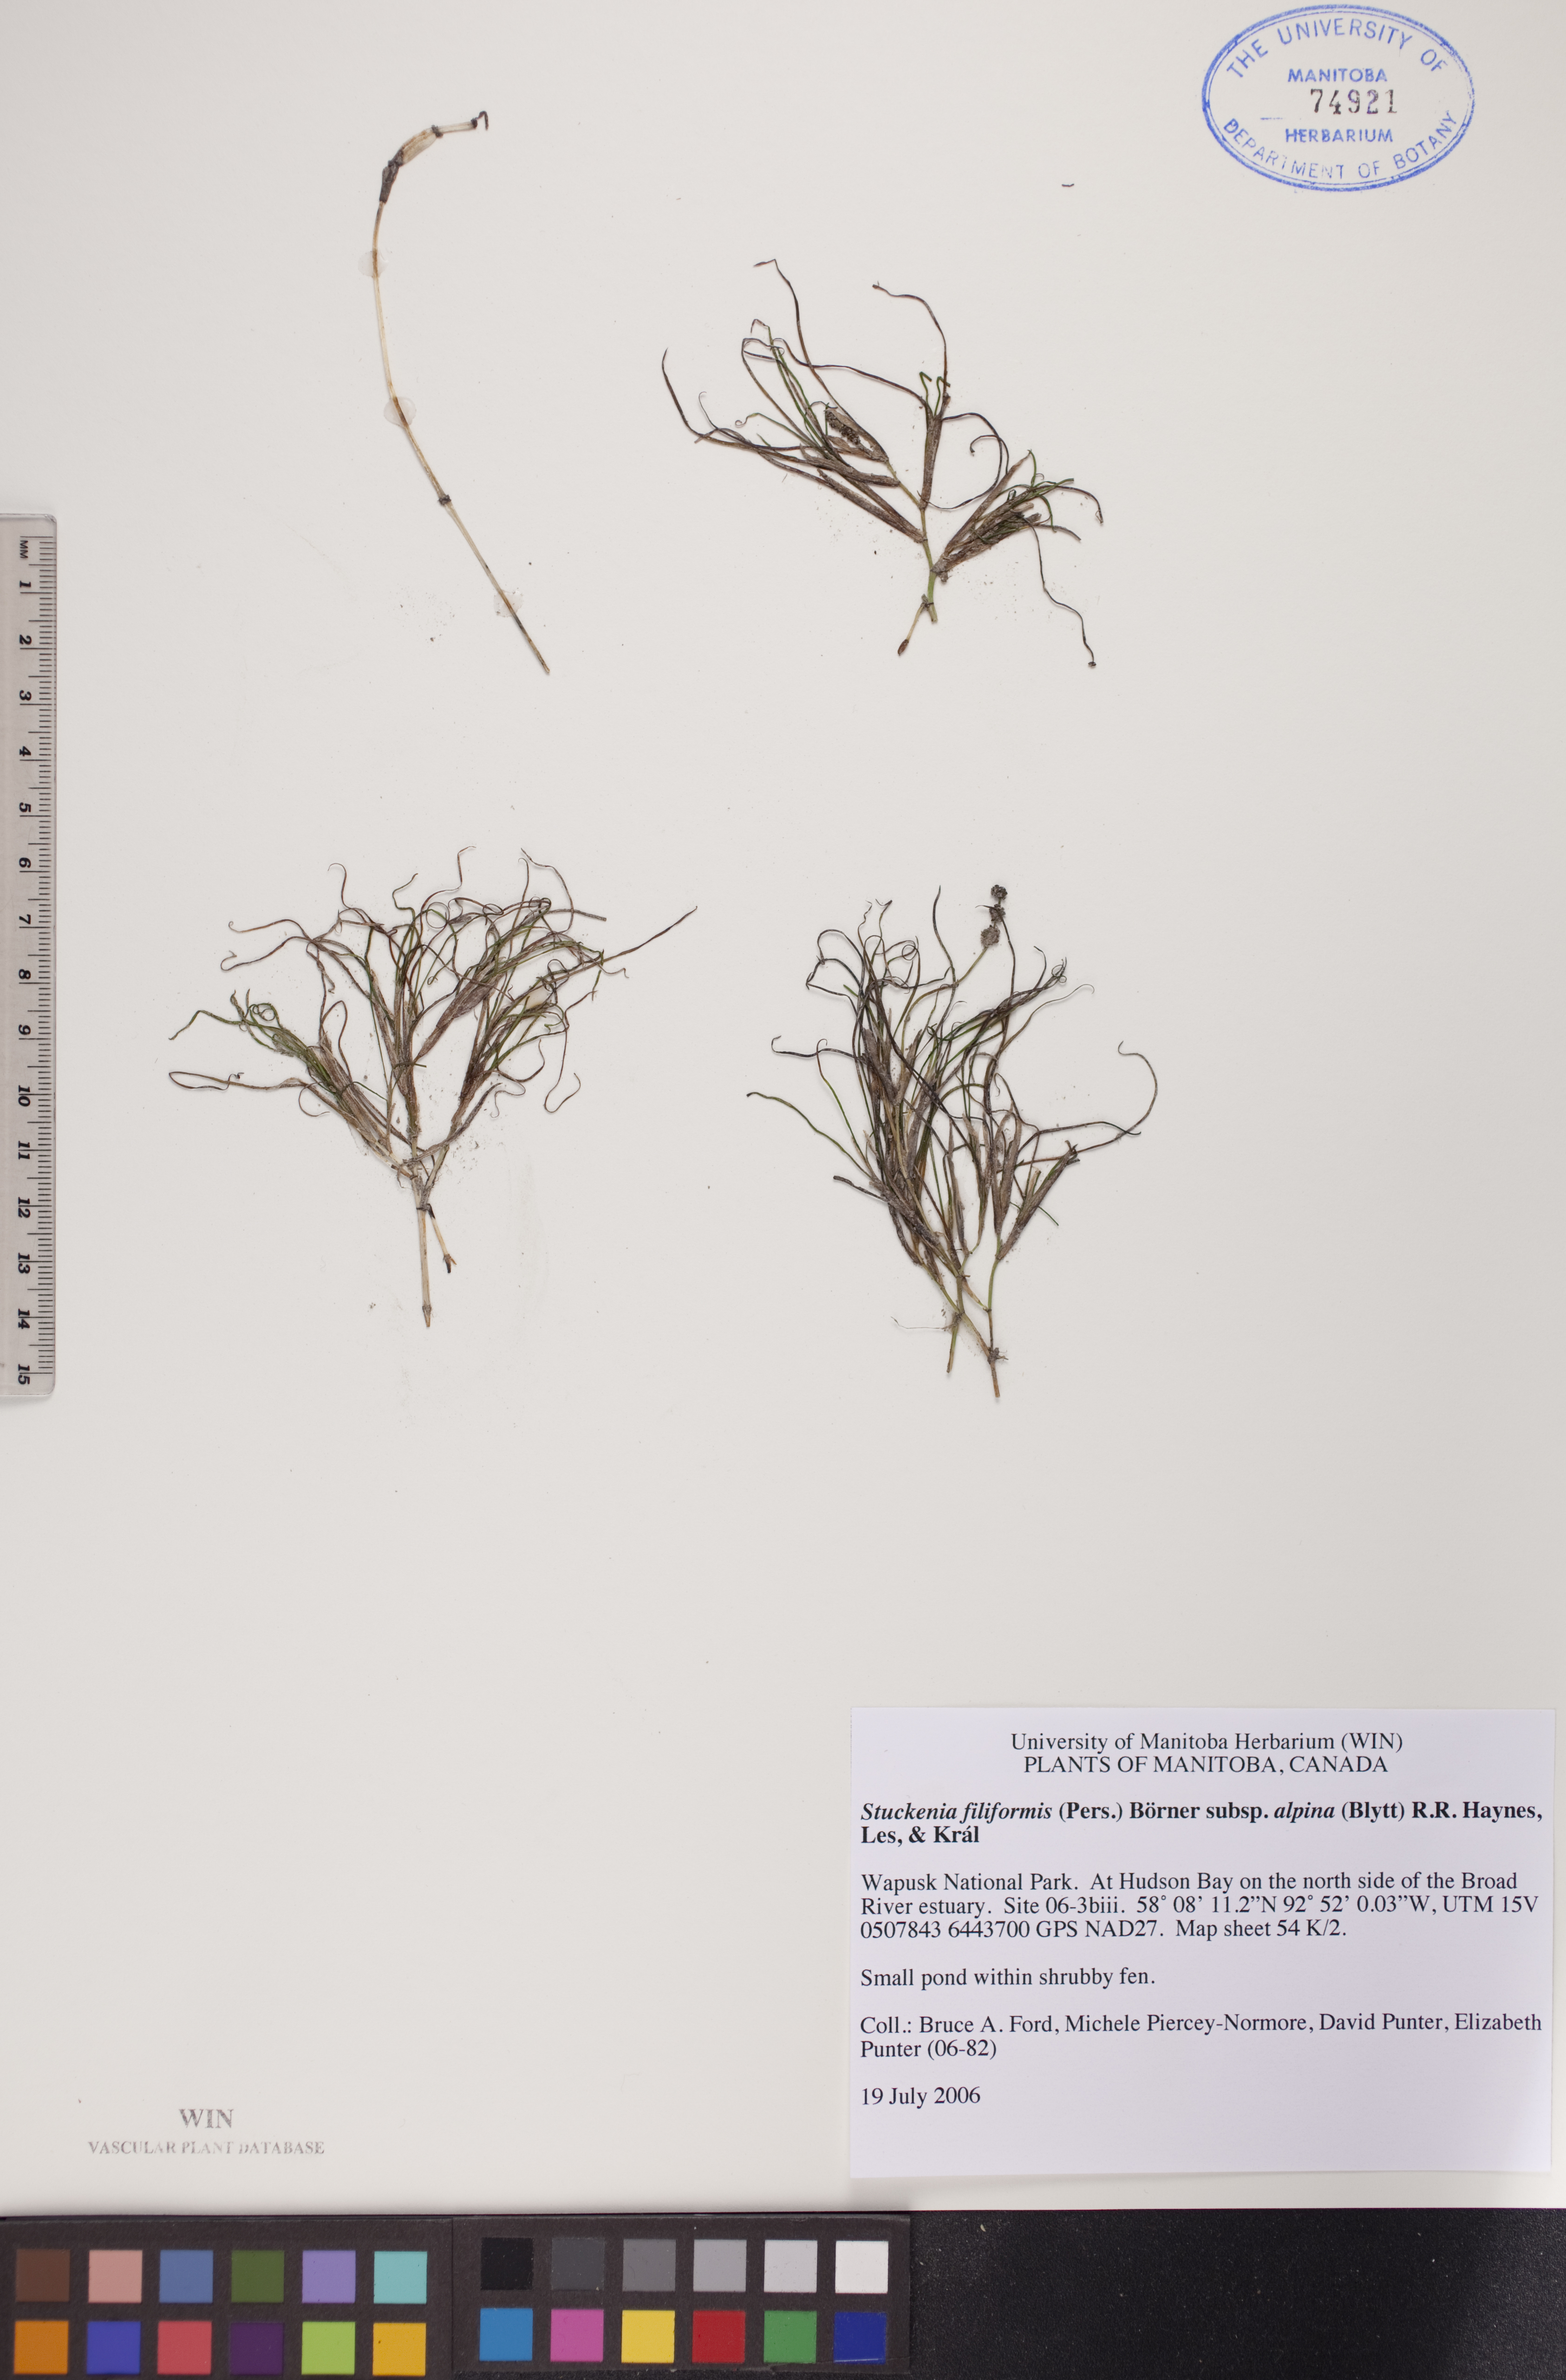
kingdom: Plantae
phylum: Tracheophyta
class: Liliopsida
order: Alismatales
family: Potamogetonaceae
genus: Stuckenia
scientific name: Stuckenia filiformis
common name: Alpine thread-leaved pondweed
